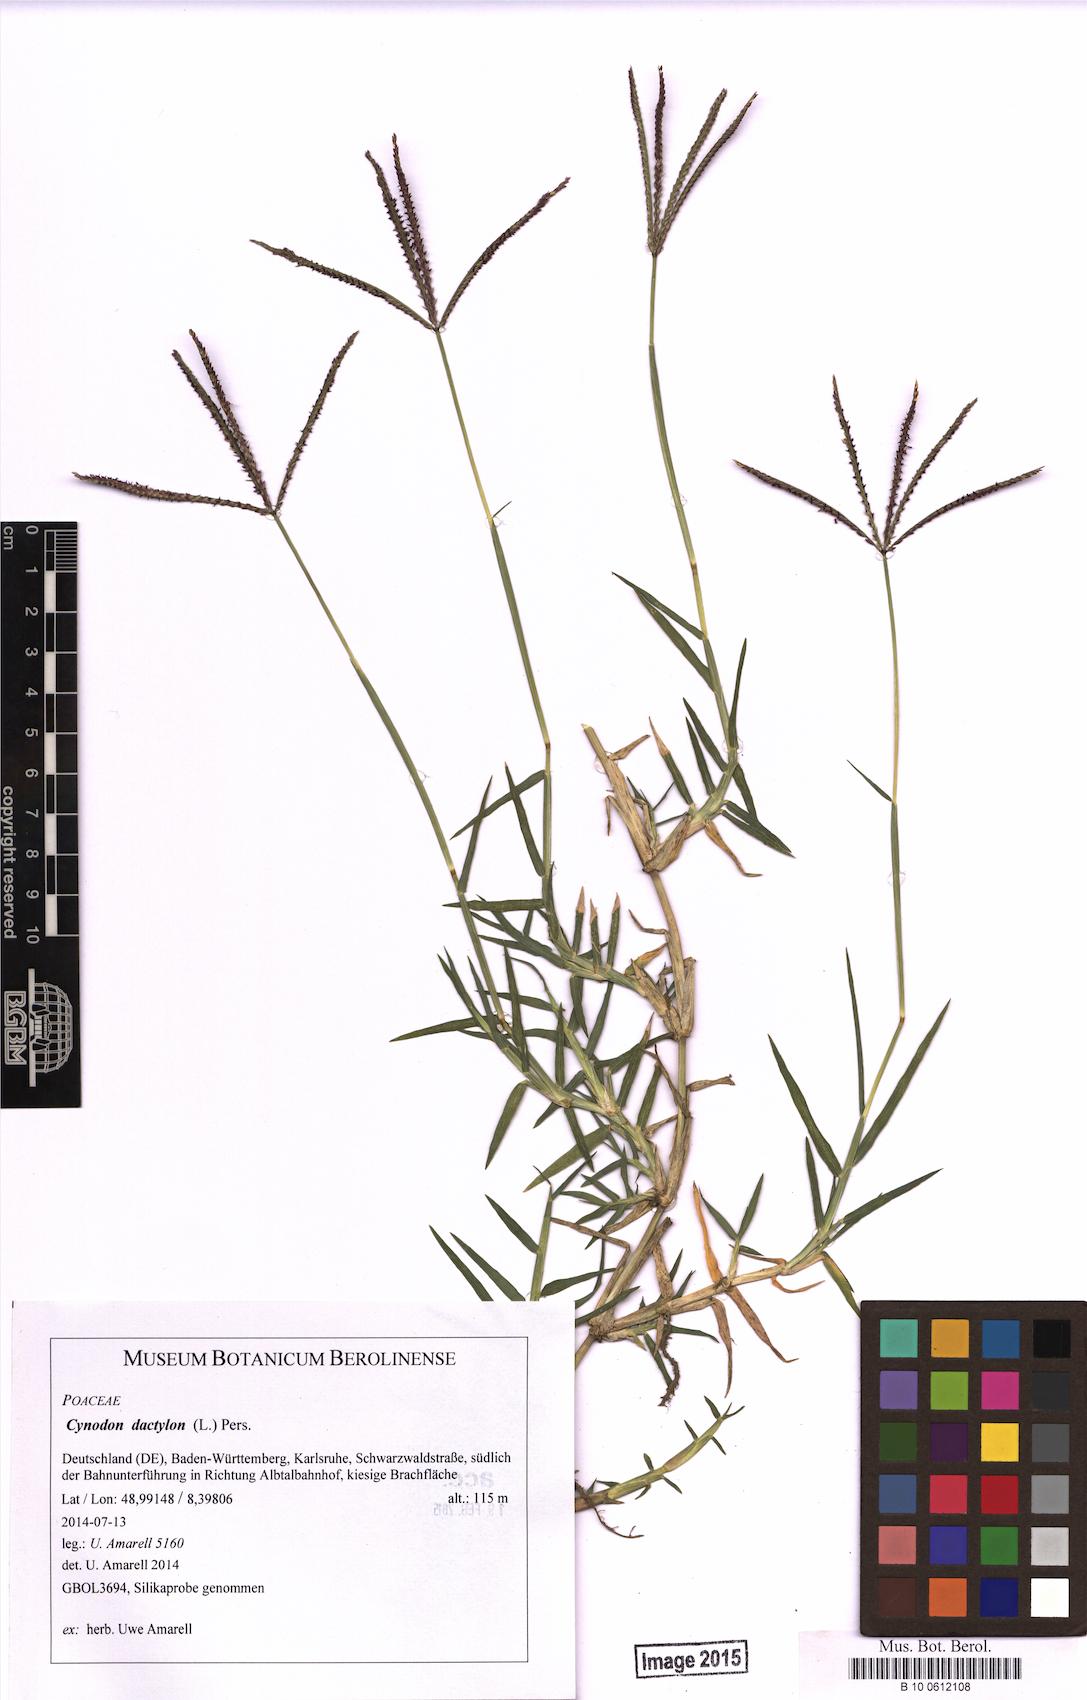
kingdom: Plantae
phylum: Tracheophyta
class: Liliopsida
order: Poales
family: Poaceae
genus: Cynodon
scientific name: Cynodon dactylon
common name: Bermuda grass
